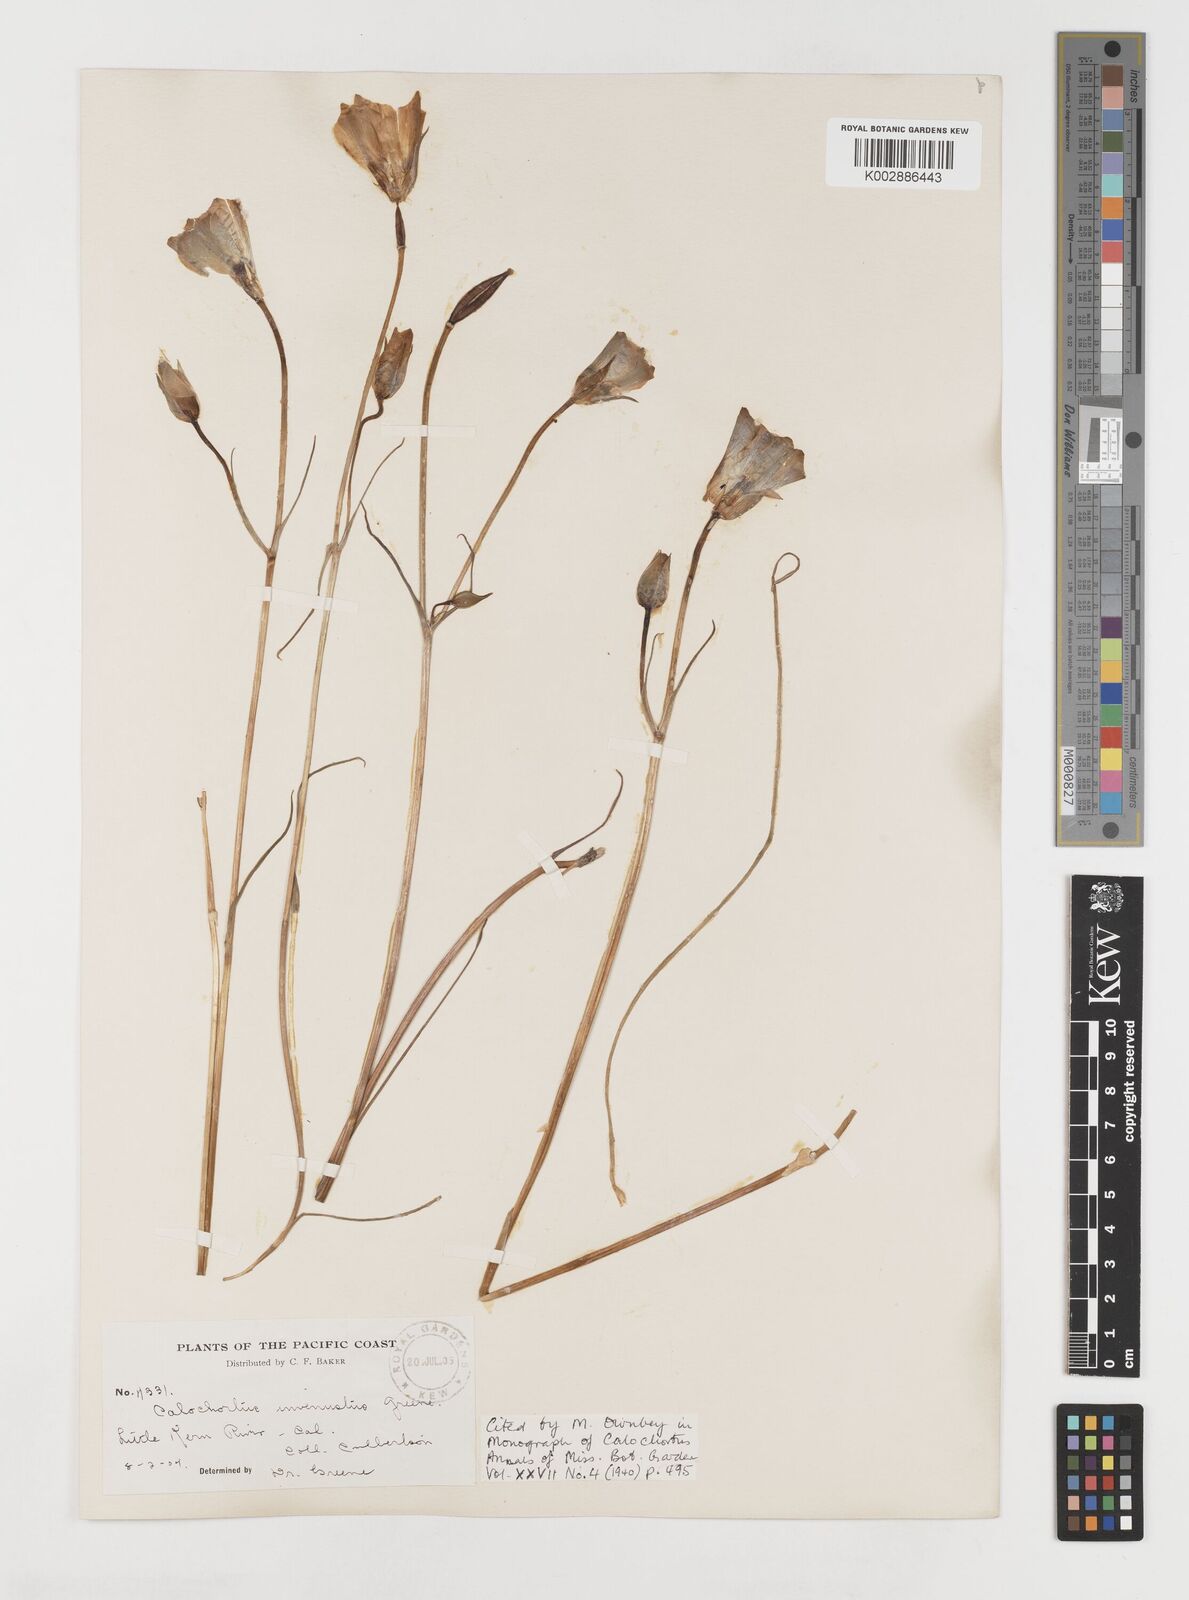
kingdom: Plantae
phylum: Tracheophyta
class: Liliopsida
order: Liliales
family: Liliaceae
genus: Calochortus
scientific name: Calochortus invenustus
